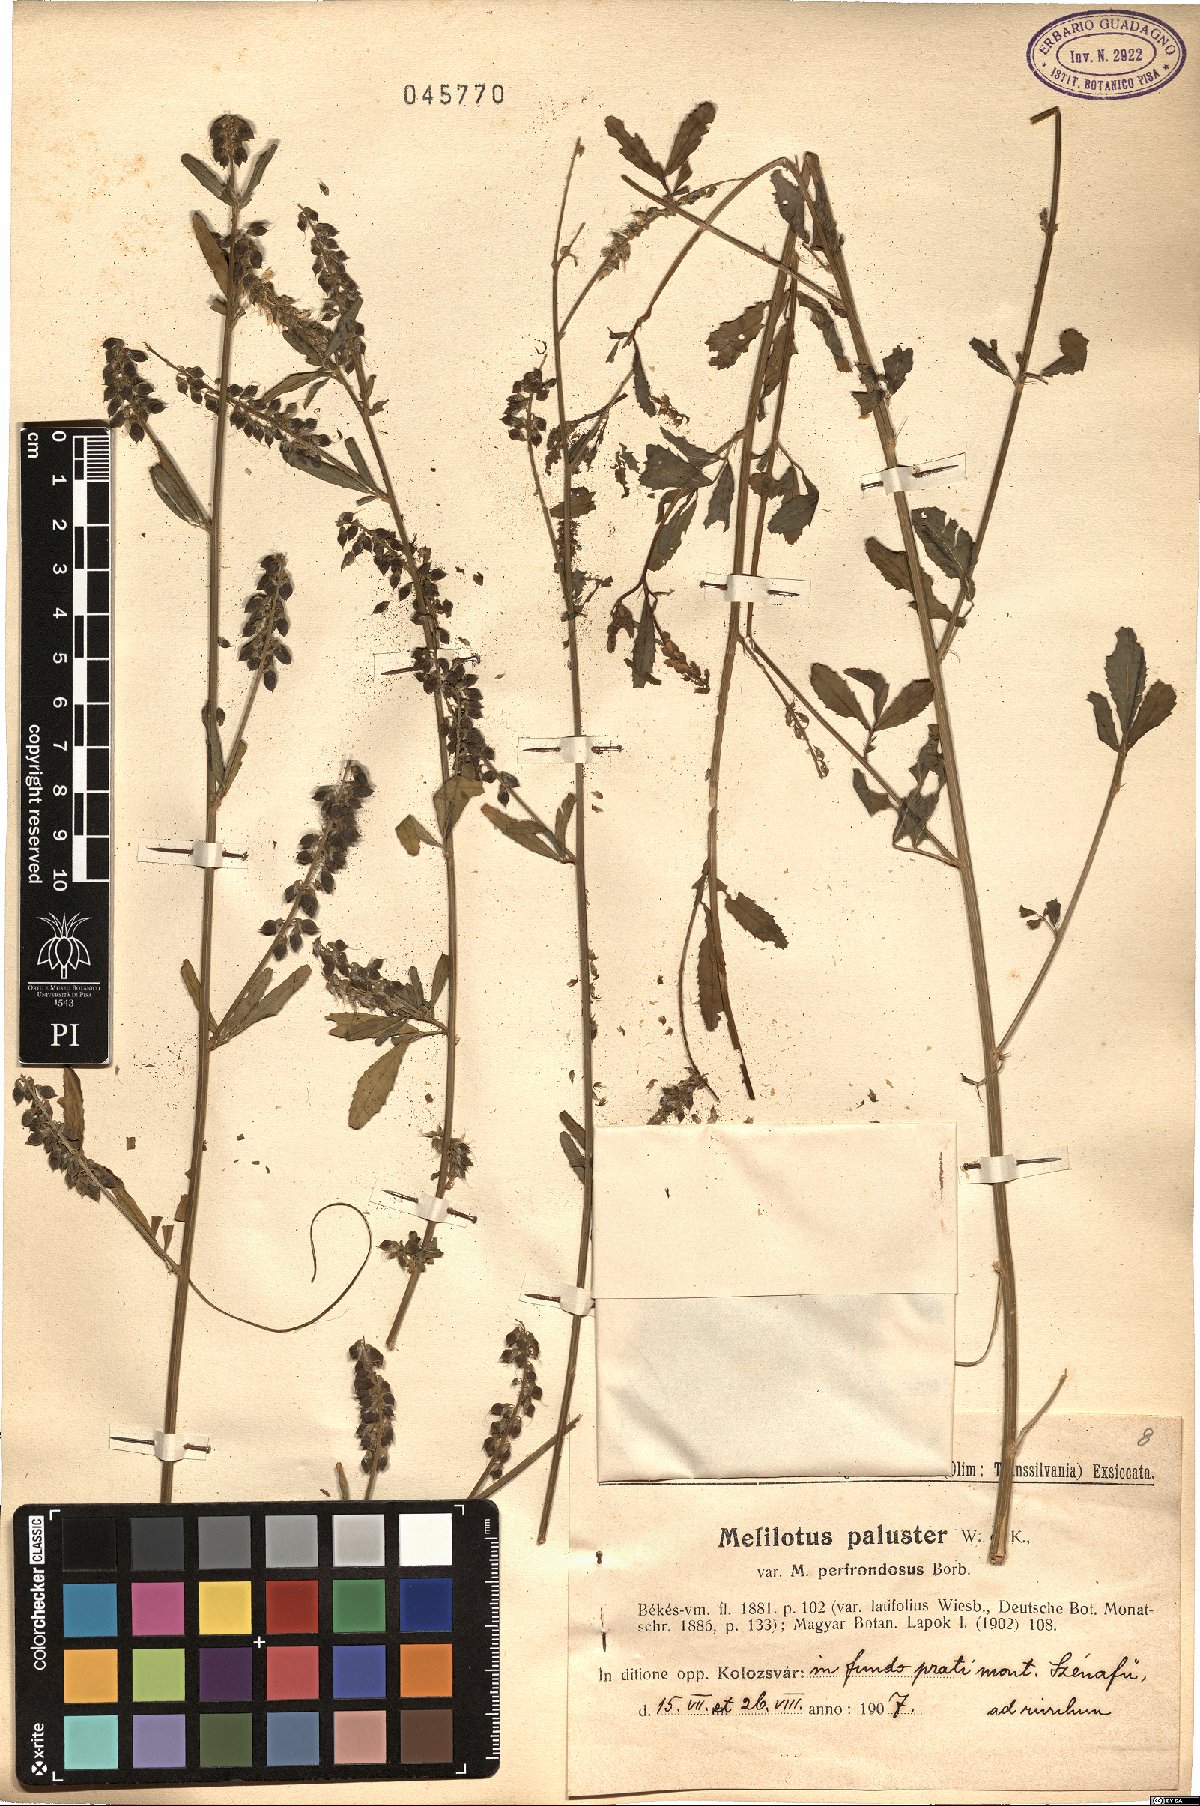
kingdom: Plantae
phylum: Tracheophyta
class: Magnoliopsida
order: Fabales
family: Fabaceae
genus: Melilotus
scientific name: Melilotus officinalis
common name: Sweetclover
